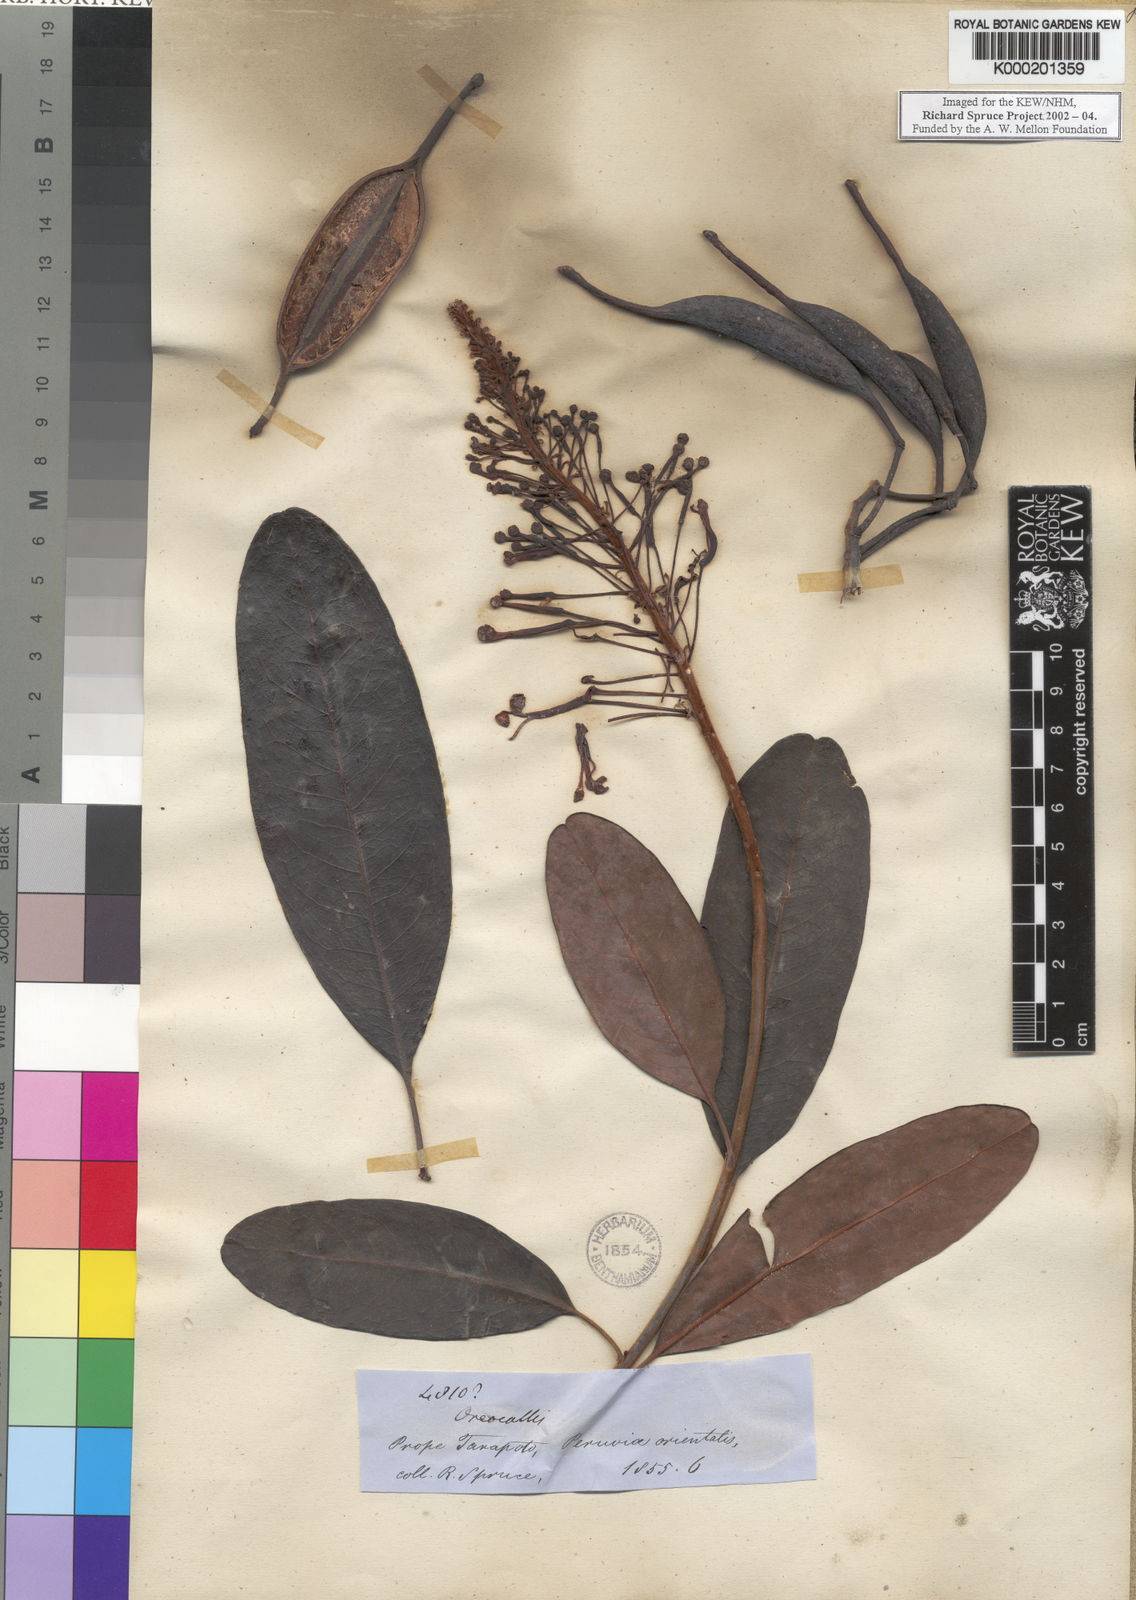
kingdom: Plantae
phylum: Tracheophyta
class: Magnoliopsida
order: Proteales
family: Proteaceae
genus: Oreocallis
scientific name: Oreocallis grandiflora
